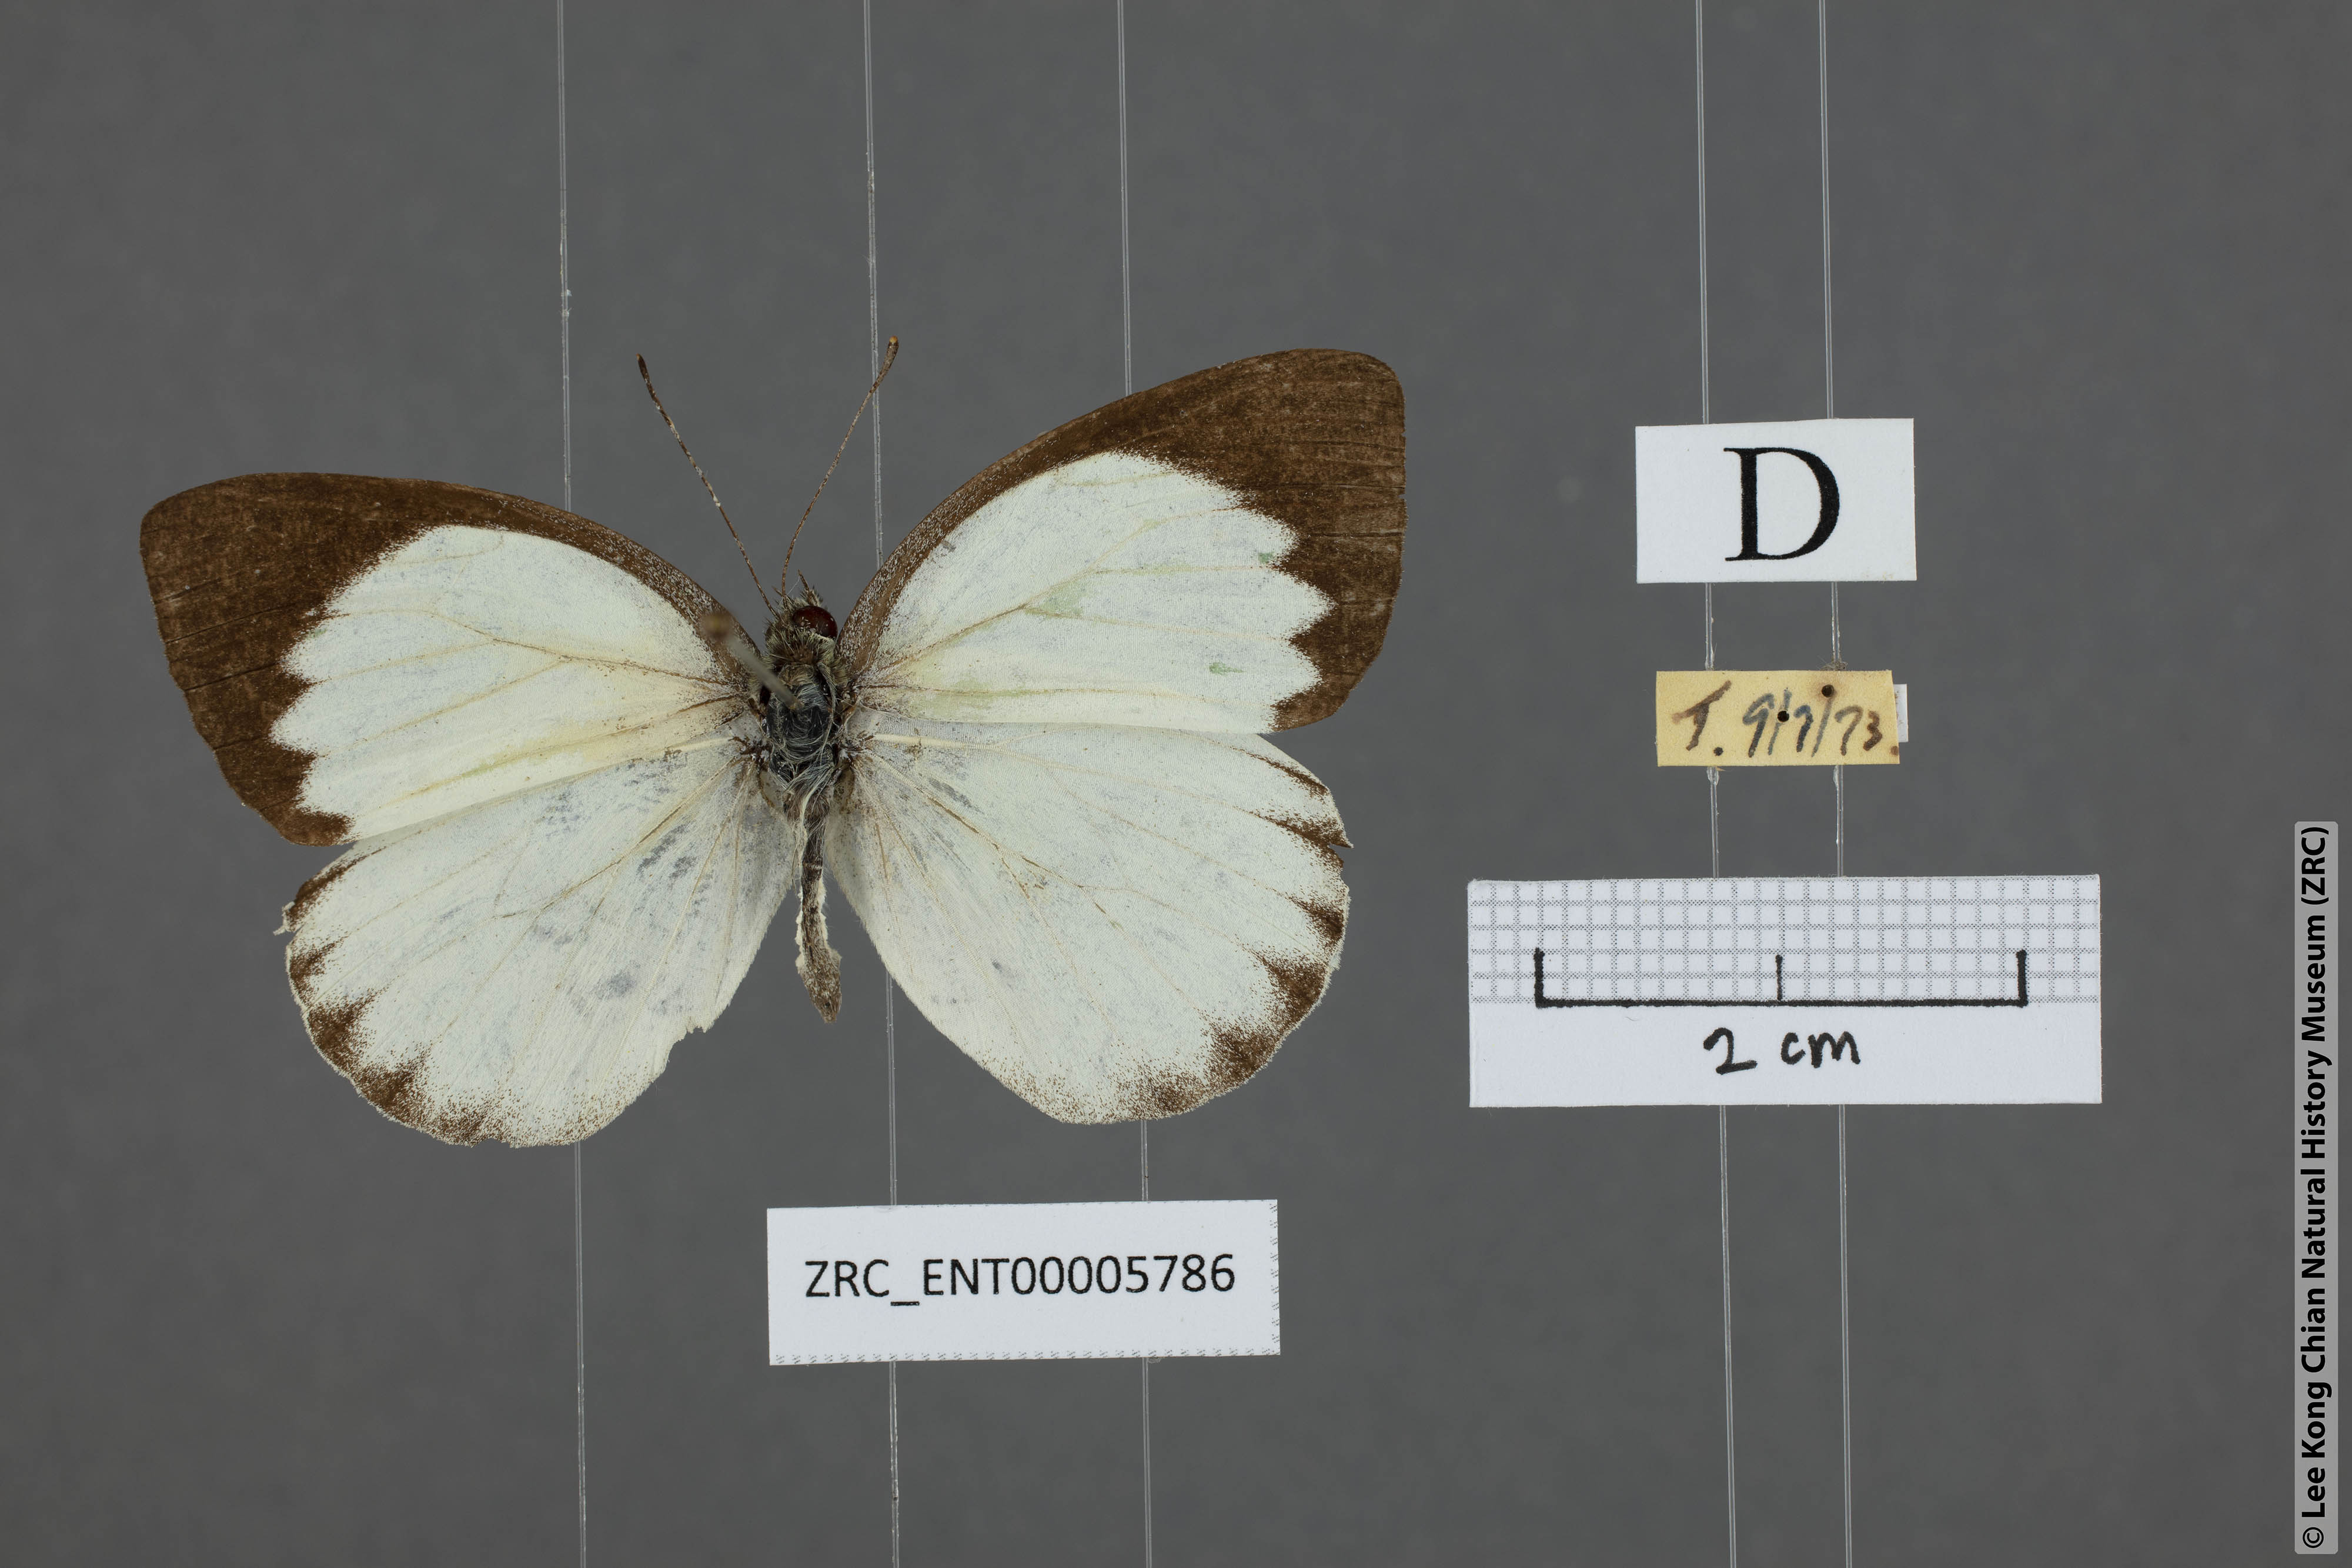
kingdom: Animalia
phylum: Arthropoda
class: Insecta
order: Lepidoptera
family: Pieridae
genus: Phrissura
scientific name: Phrissura aegis
